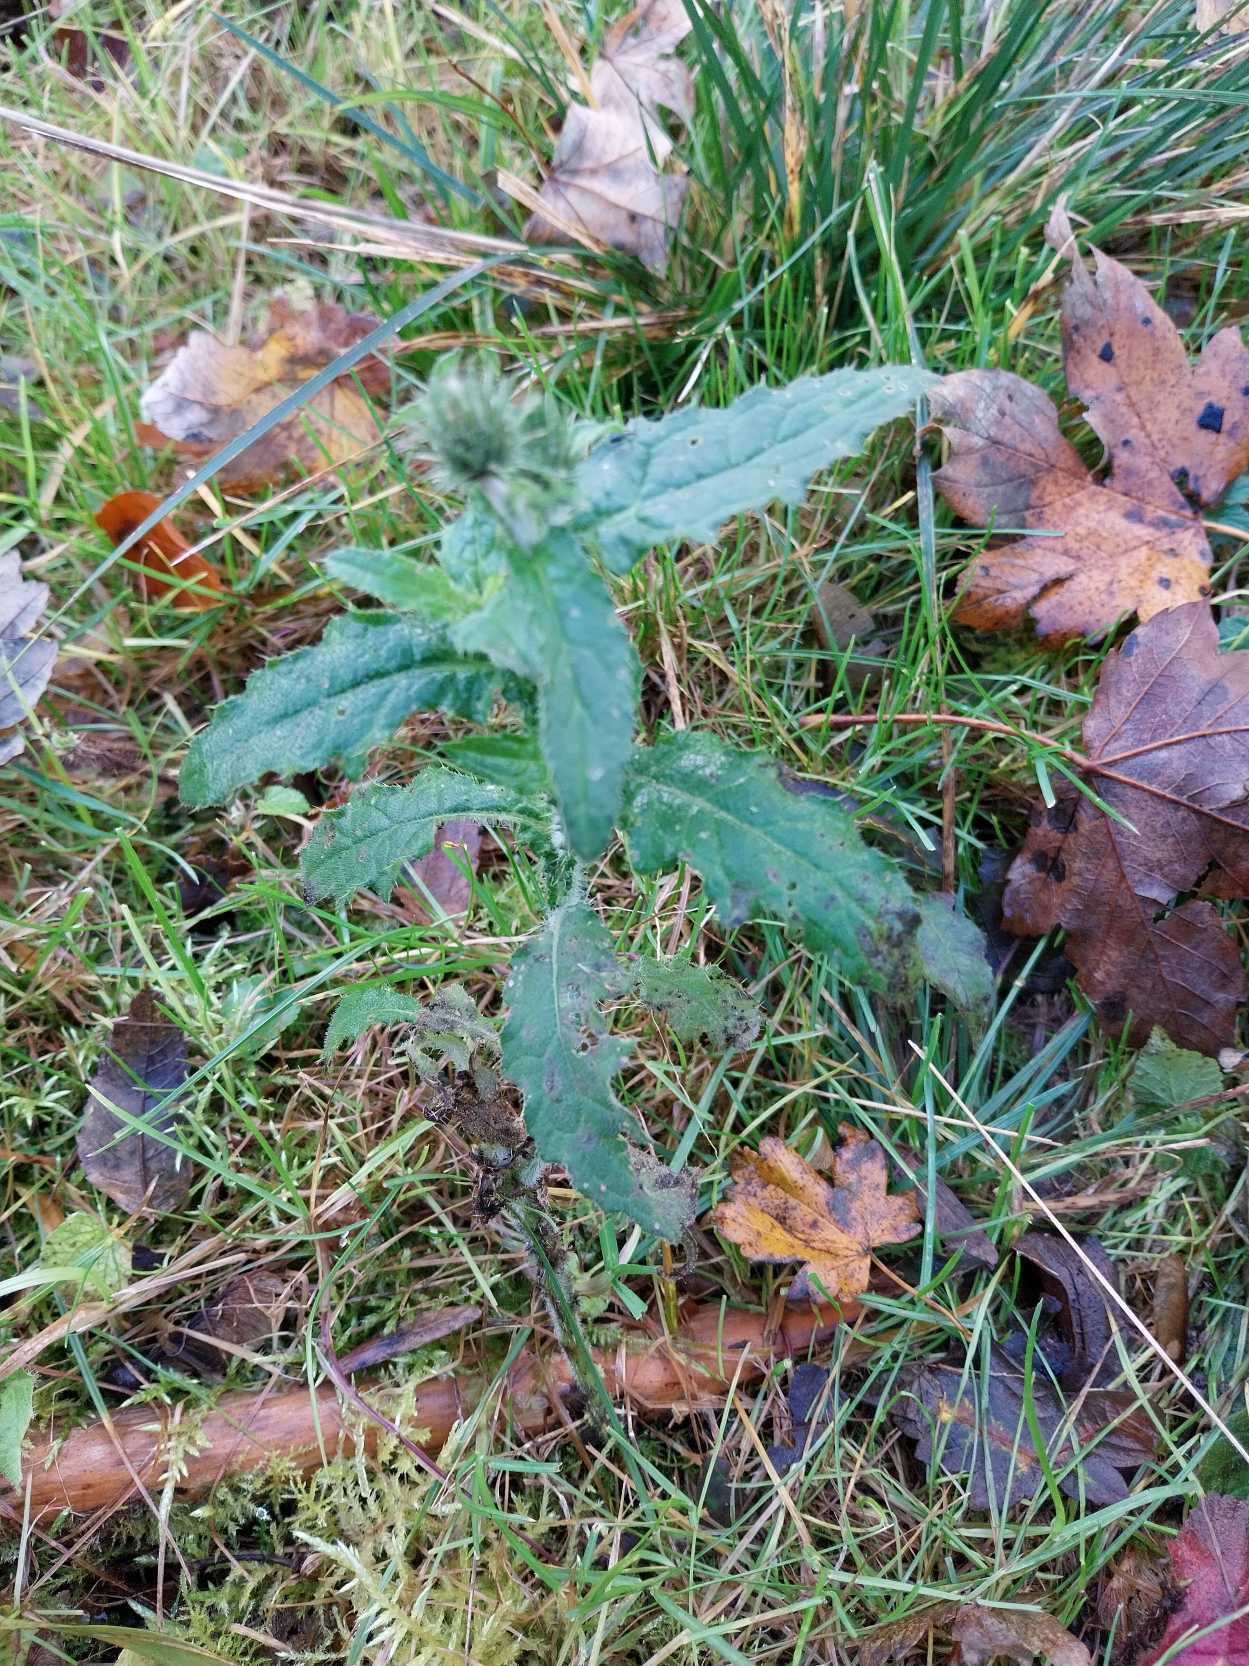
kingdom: Plantae
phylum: Tracheophyta
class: Magnoliopsida
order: Asterales
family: Asteraceae
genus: Carduus
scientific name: Carduus crispus
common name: Kruset tidsel
